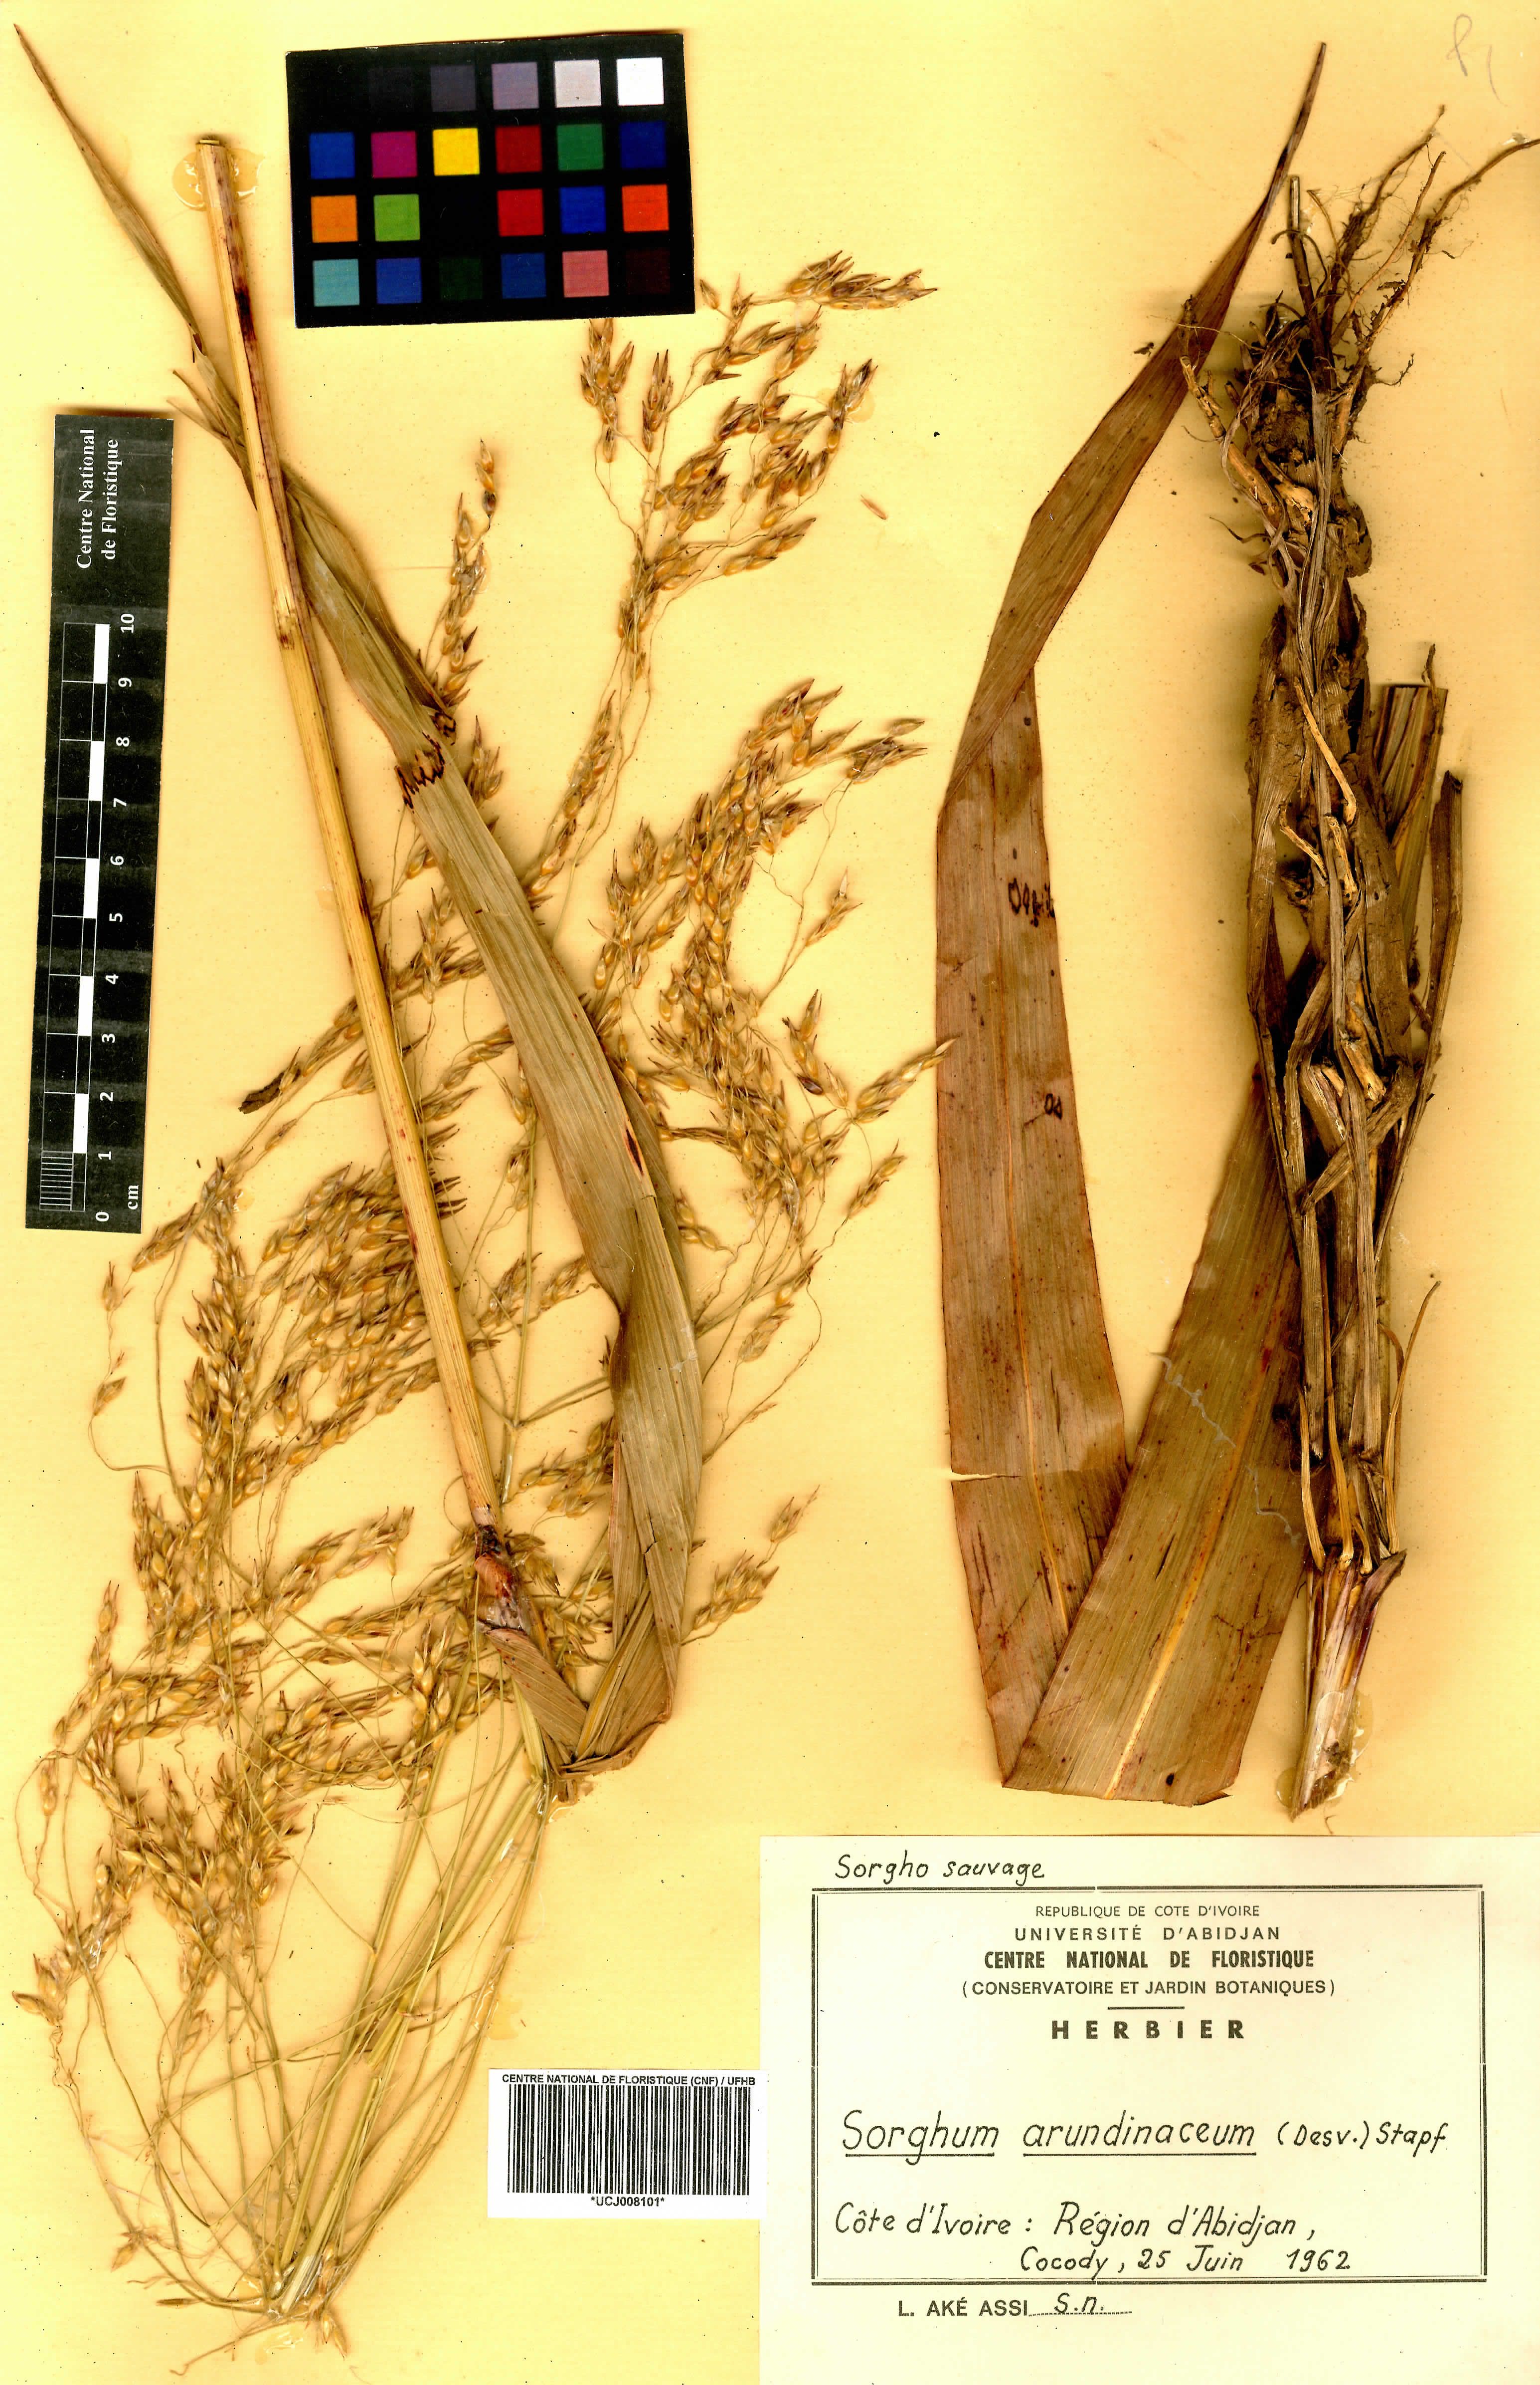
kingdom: Plantae
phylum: Tracheophyta
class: Liliopsida
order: Poales
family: Poaceae
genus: Sorghum
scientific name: Sorghum arundinaceum
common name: Sorghum
